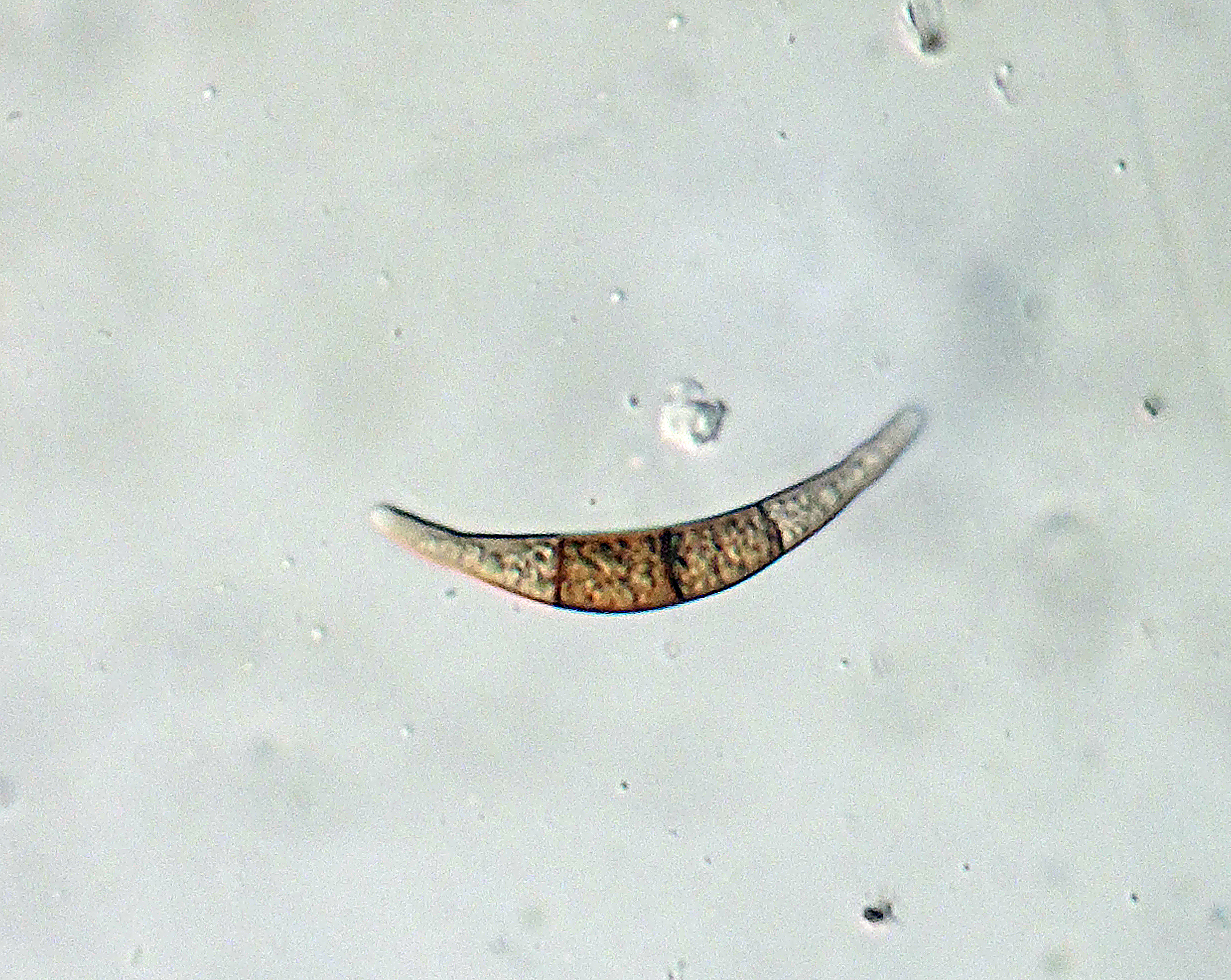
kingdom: Fungi
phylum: Ascomycota
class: Sordariomycetes
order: Xylariales
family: Melogrammataceae
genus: Melogramma
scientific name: Melogramma campylosporum
